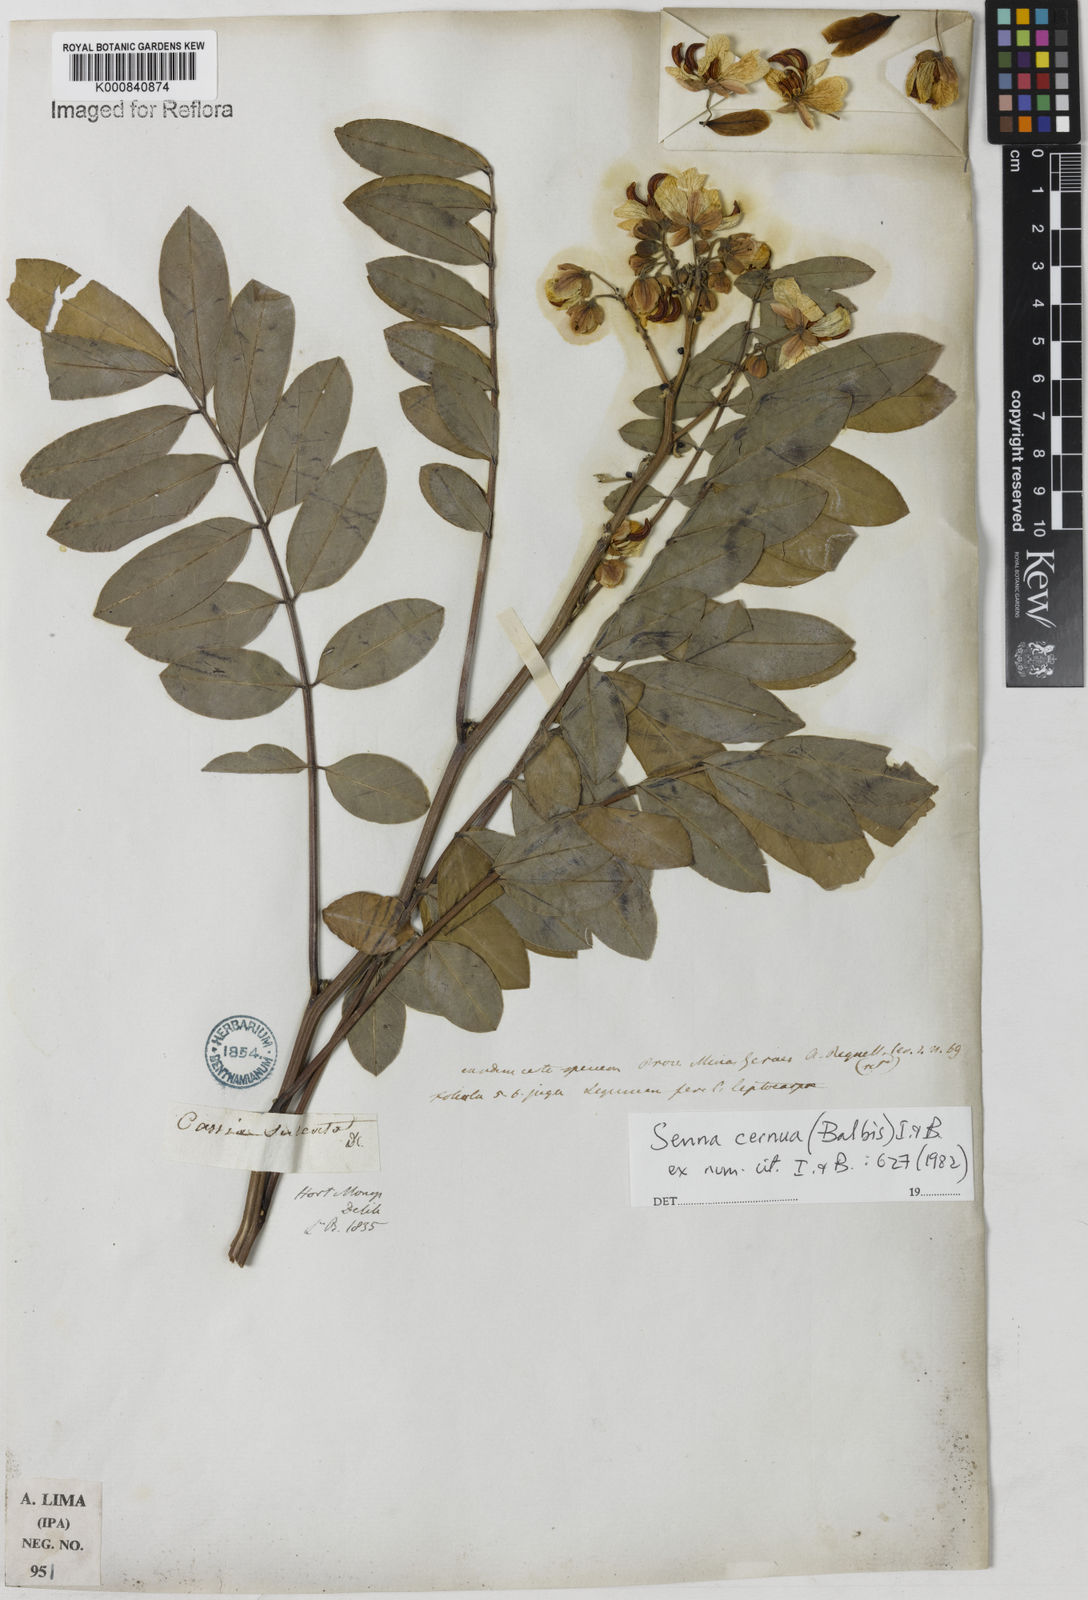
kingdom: Plantae
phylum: Tracheophyta
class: Magnoliopsida
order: Fabales
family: Fabaceae
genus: Senna
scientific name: Senna cernua
